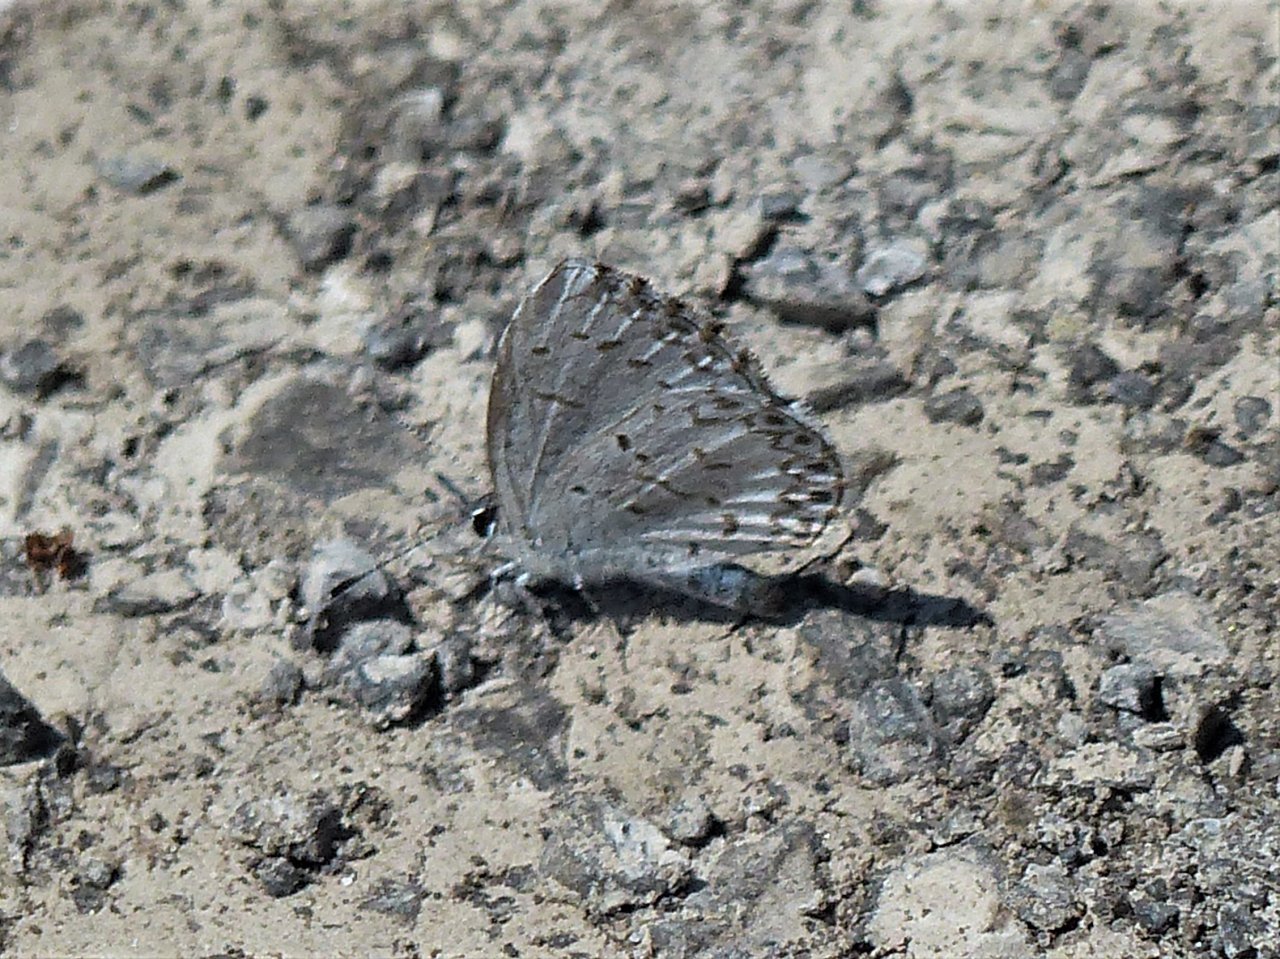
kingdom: Animalia
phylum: Arthropoda
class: Insecta
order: Lepidoptera
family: Lycaenidae
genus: Celastrina
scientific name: Celastrina lucia
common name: Northern Spring Azure
